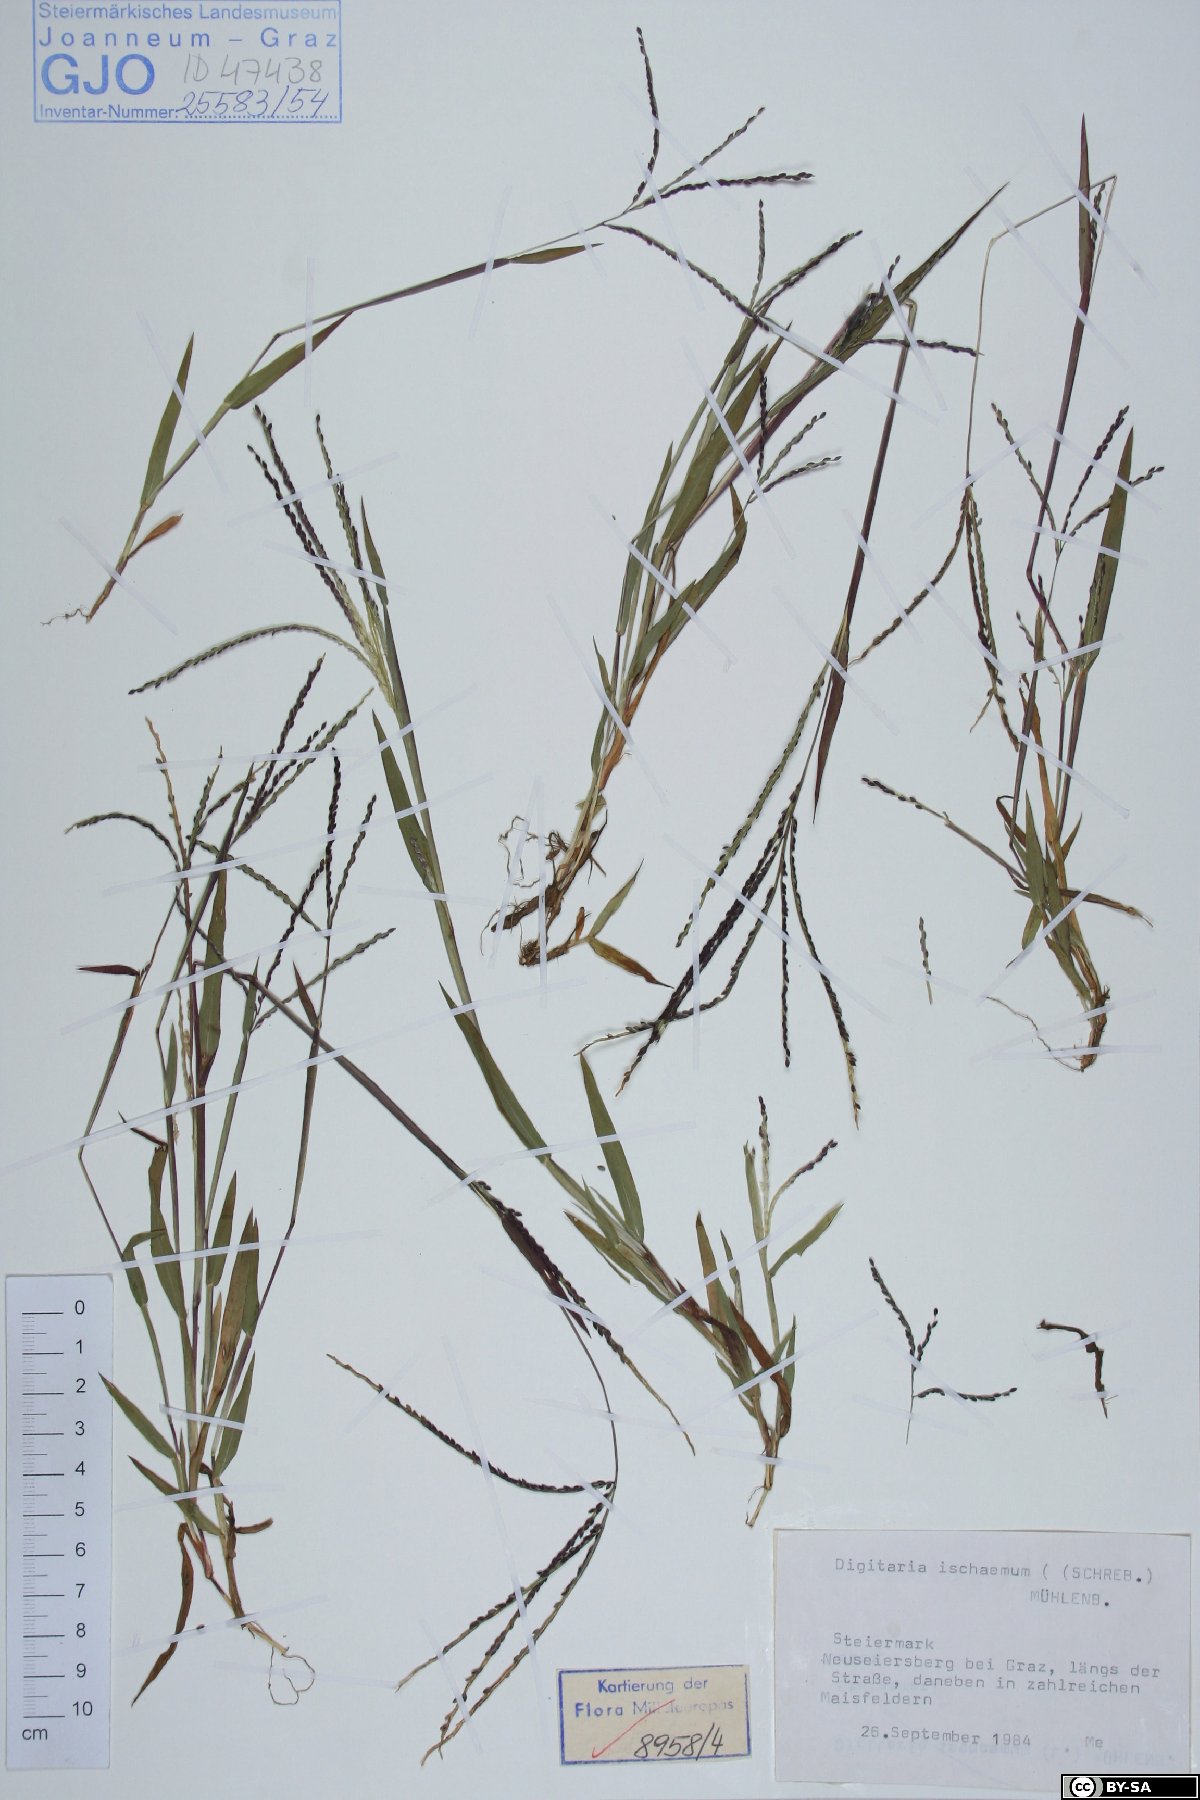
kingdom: Plantae
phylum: Tracheophyta
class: Liliopsida
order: Poales
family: Poaceae
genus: Digitaria
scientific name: Digitaria ischaemum
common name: Smooth crabgrass
